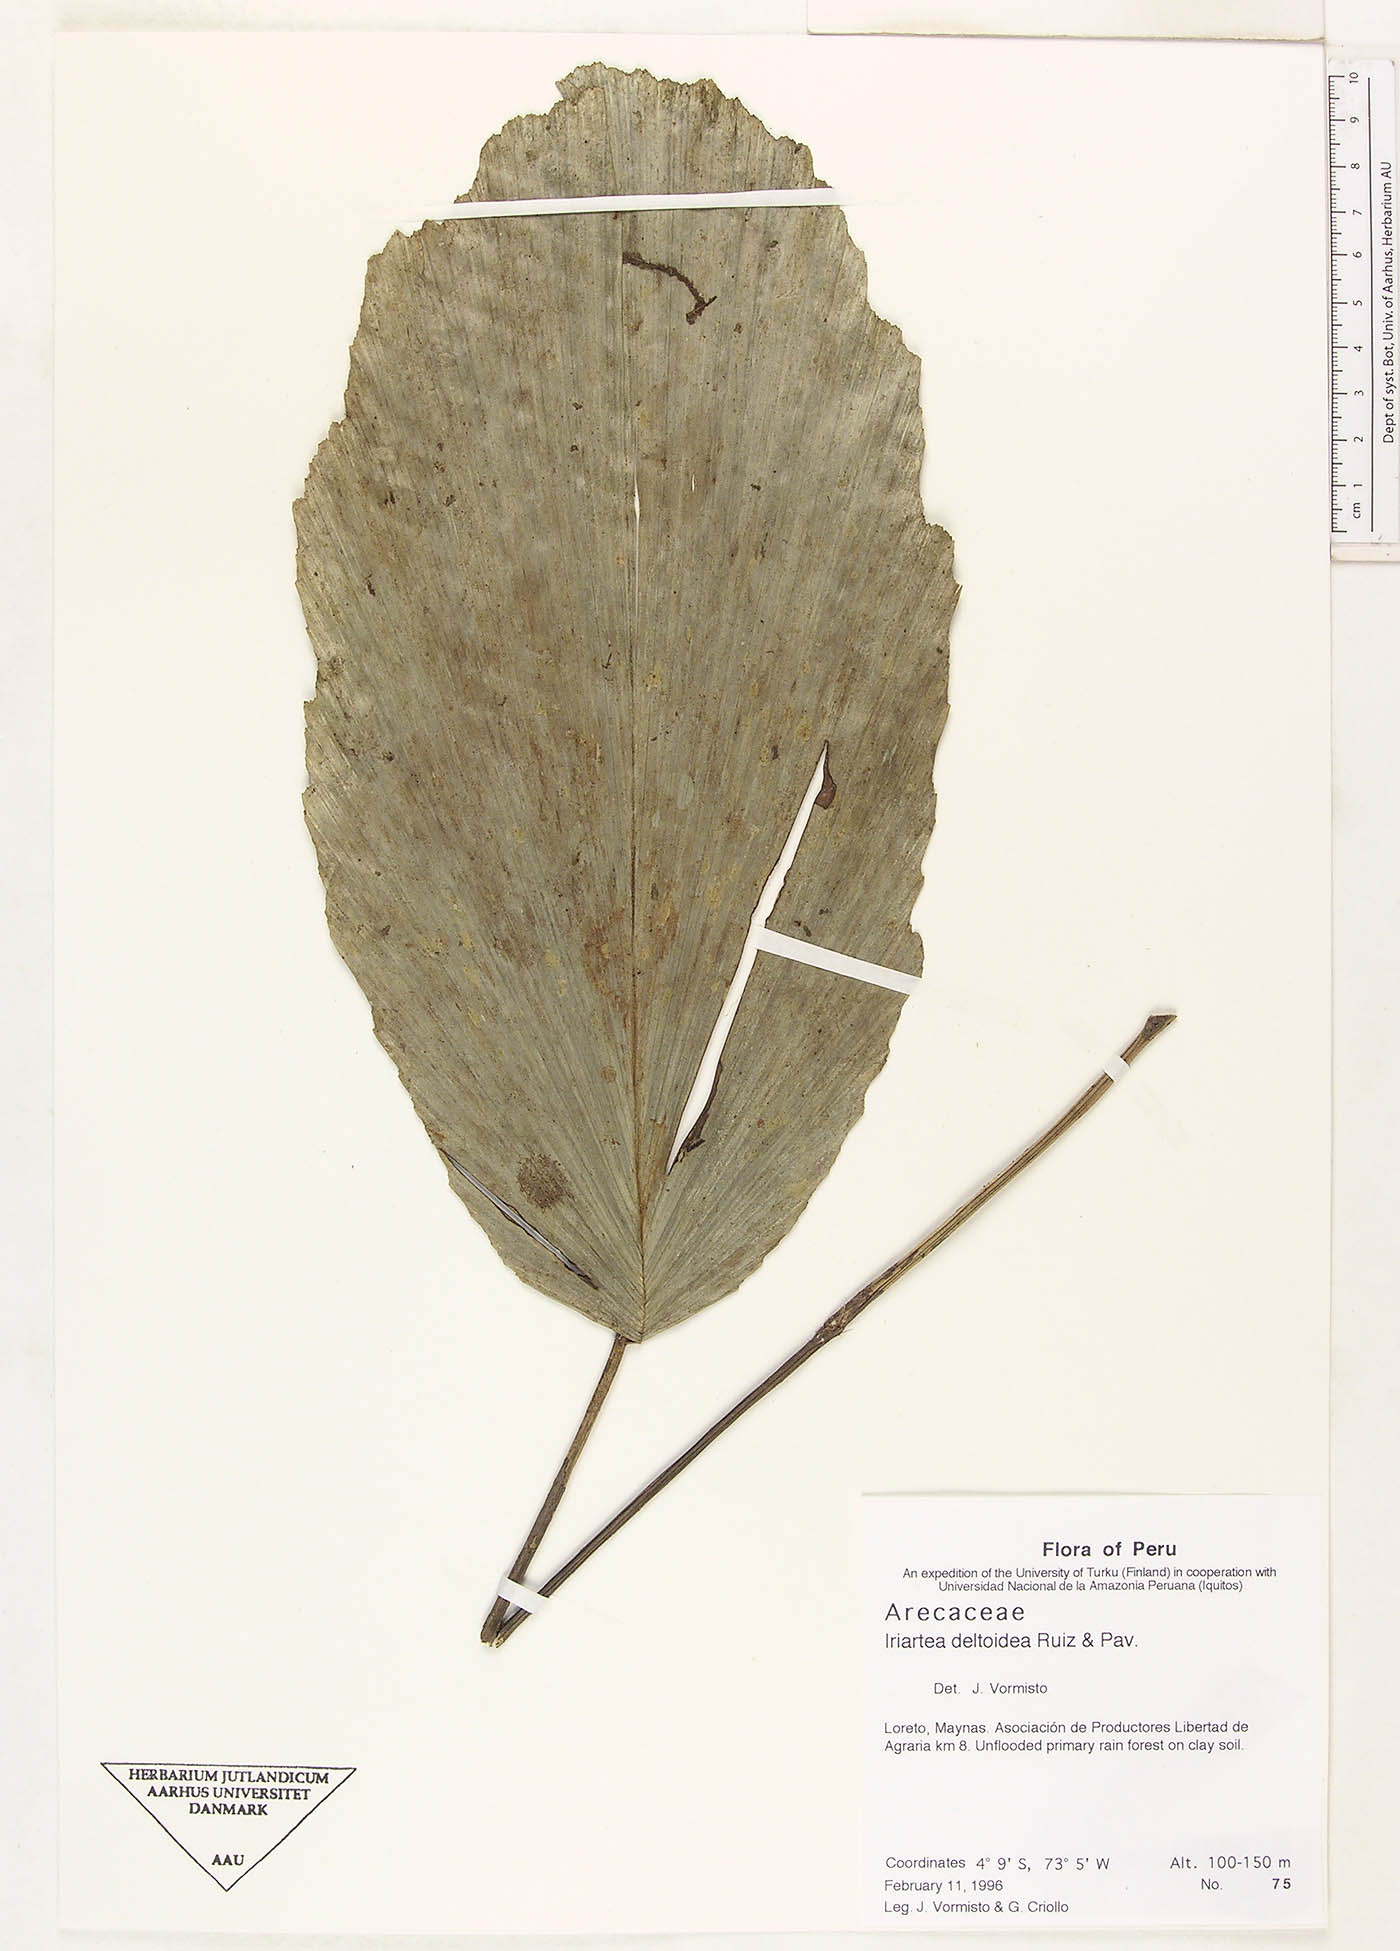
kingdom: Plantae
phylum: Tracheophyta
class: Liliopsida
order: Arecales
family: Arecaceae
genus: Iriartea
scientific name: Iriartea deltoidea
